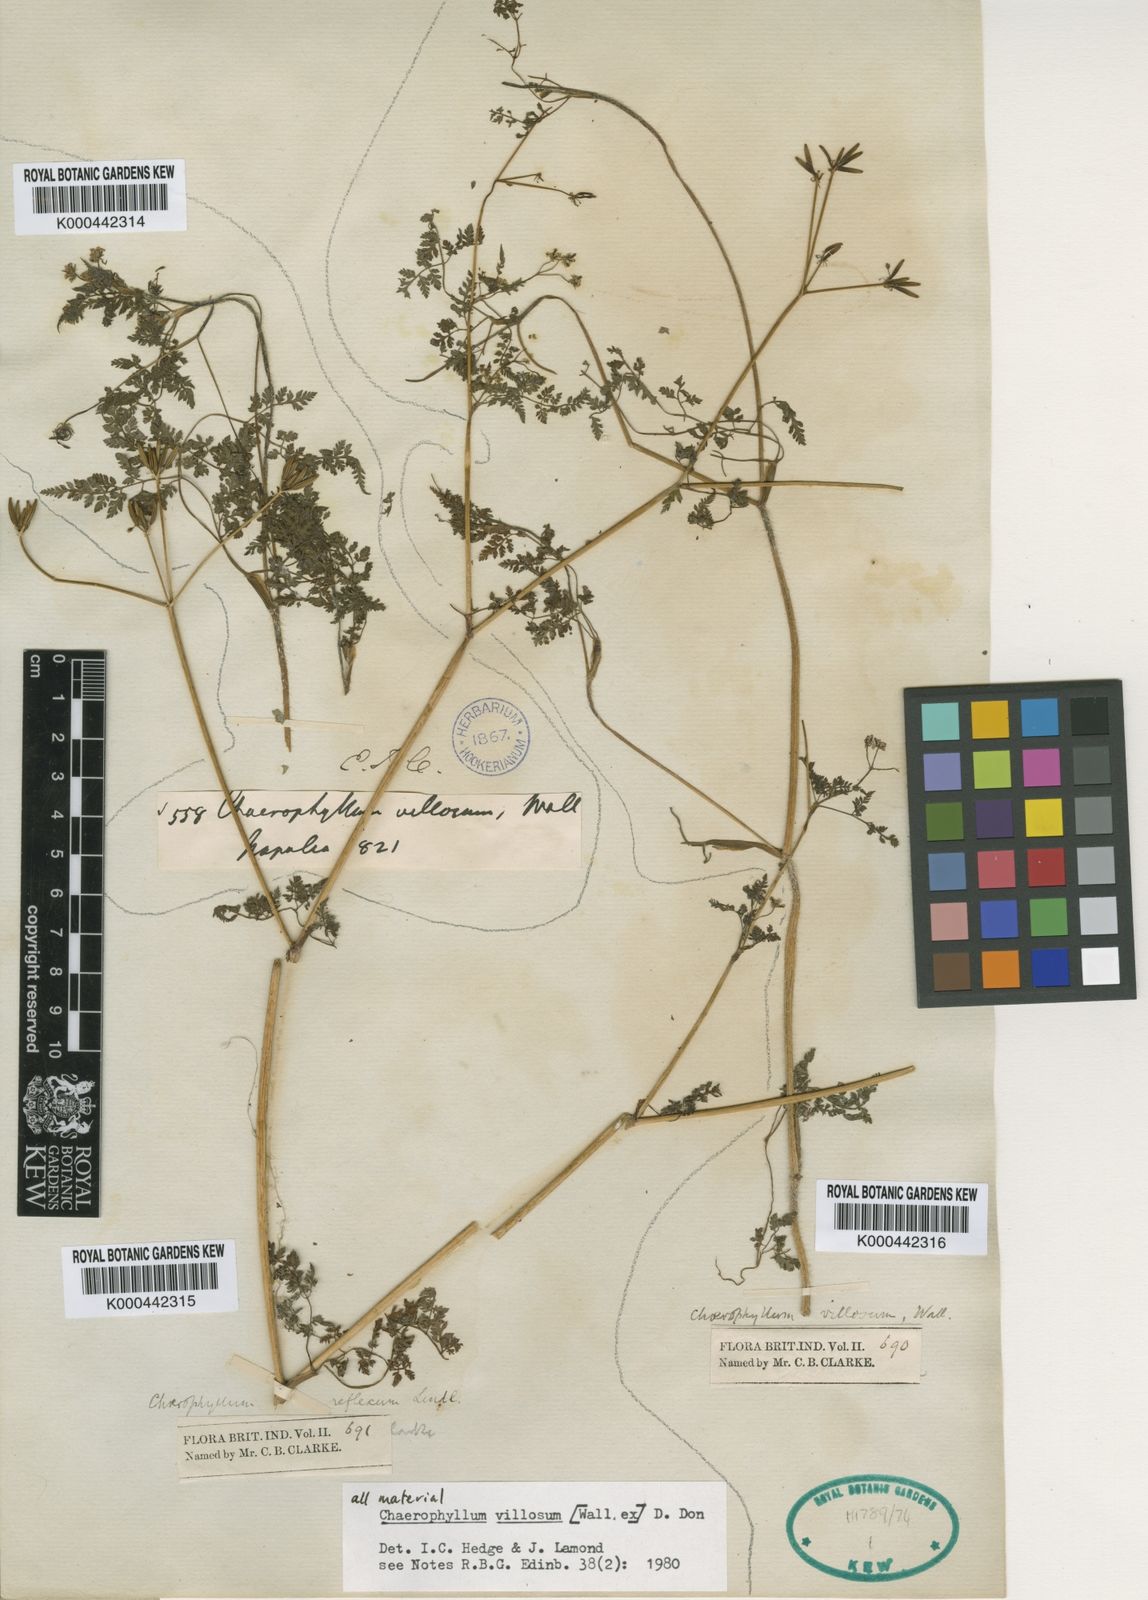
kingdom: Plantae
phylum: Tracheophyta
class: Magnoliopsida
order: Apiales
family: Apiaceae
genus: Chaerophyllum
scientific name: Chaerophyllum villosum
